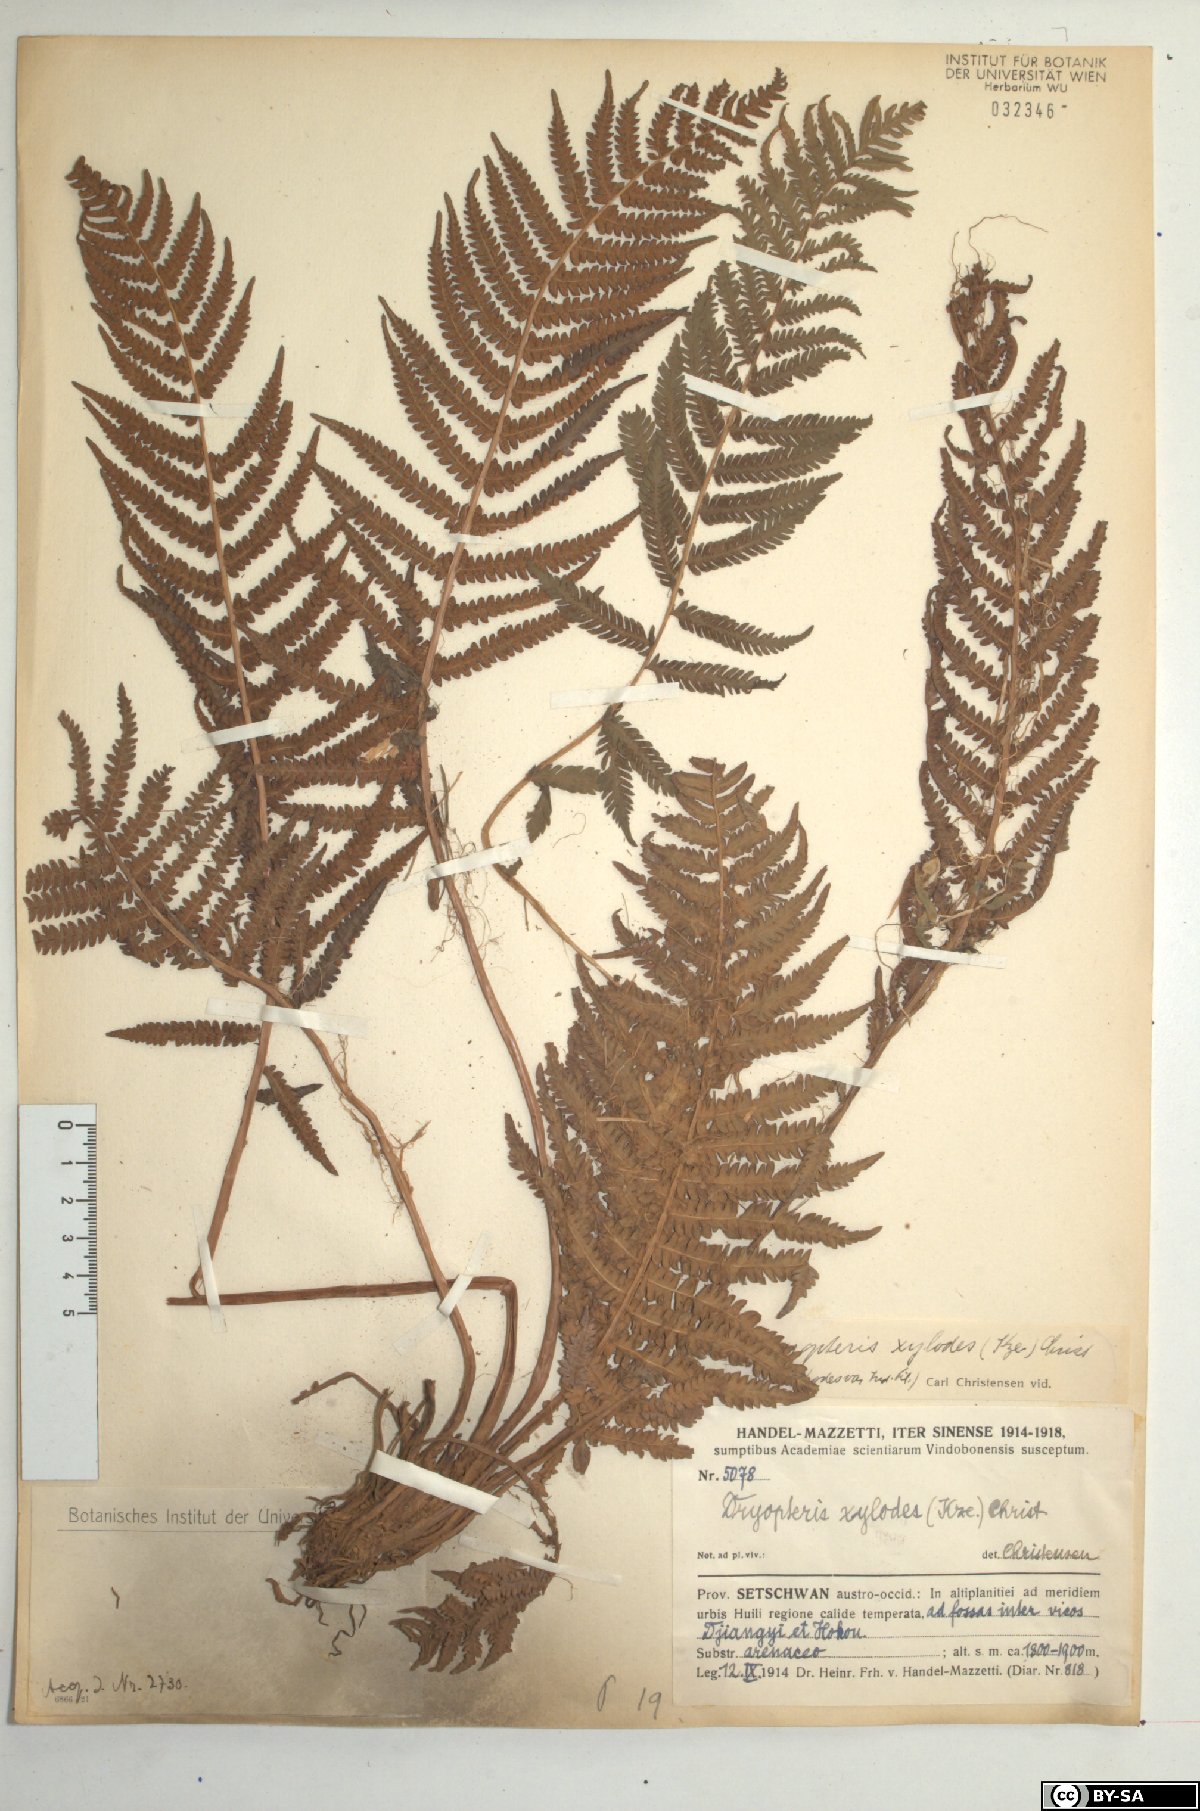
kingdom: Plantae
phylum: Tracheophyta
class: Polypodiopsida
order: Polypodiales
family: Thelypteridaceae
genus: Pseudocyclosorus
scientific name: Pseudocyclosorus xylodes
